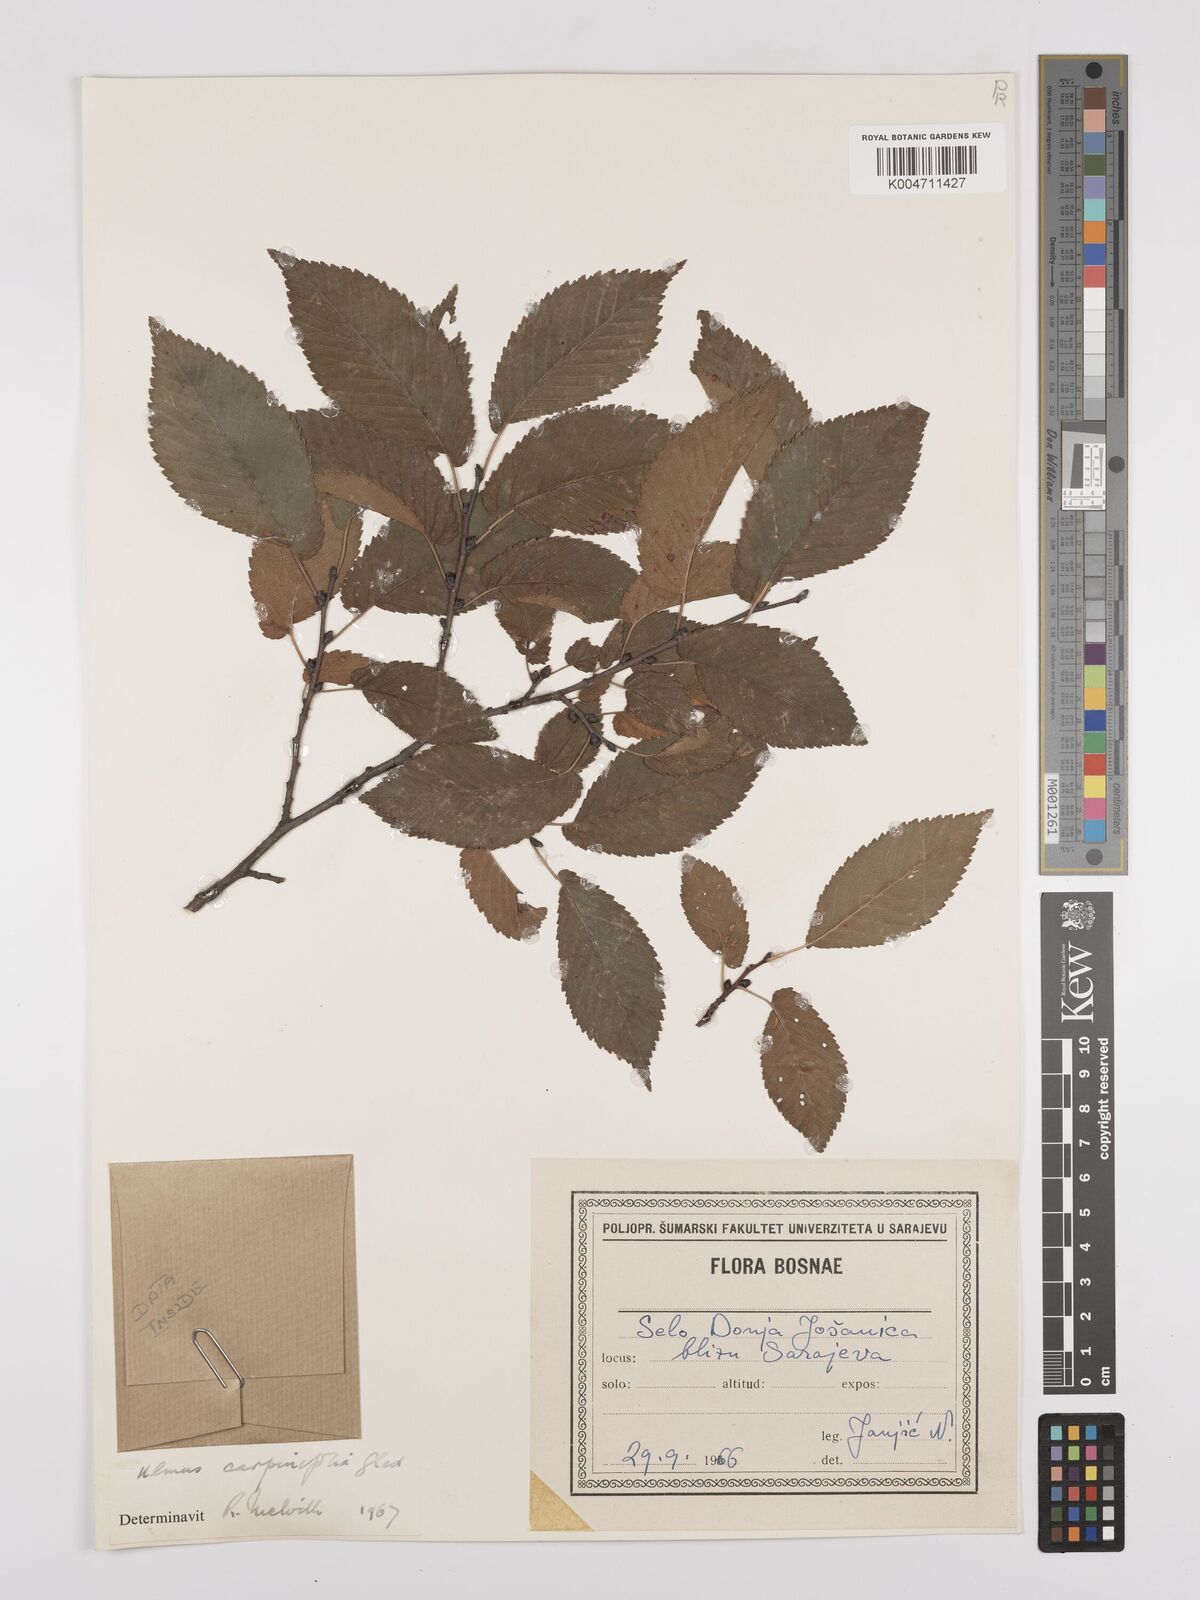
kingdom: Plantae
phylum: Tracheophyta
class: Magnoliopsida
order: Rosales
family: Ulmaceae
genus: Ulmus
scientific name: Ulmus minor
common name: Small-leaved elm
